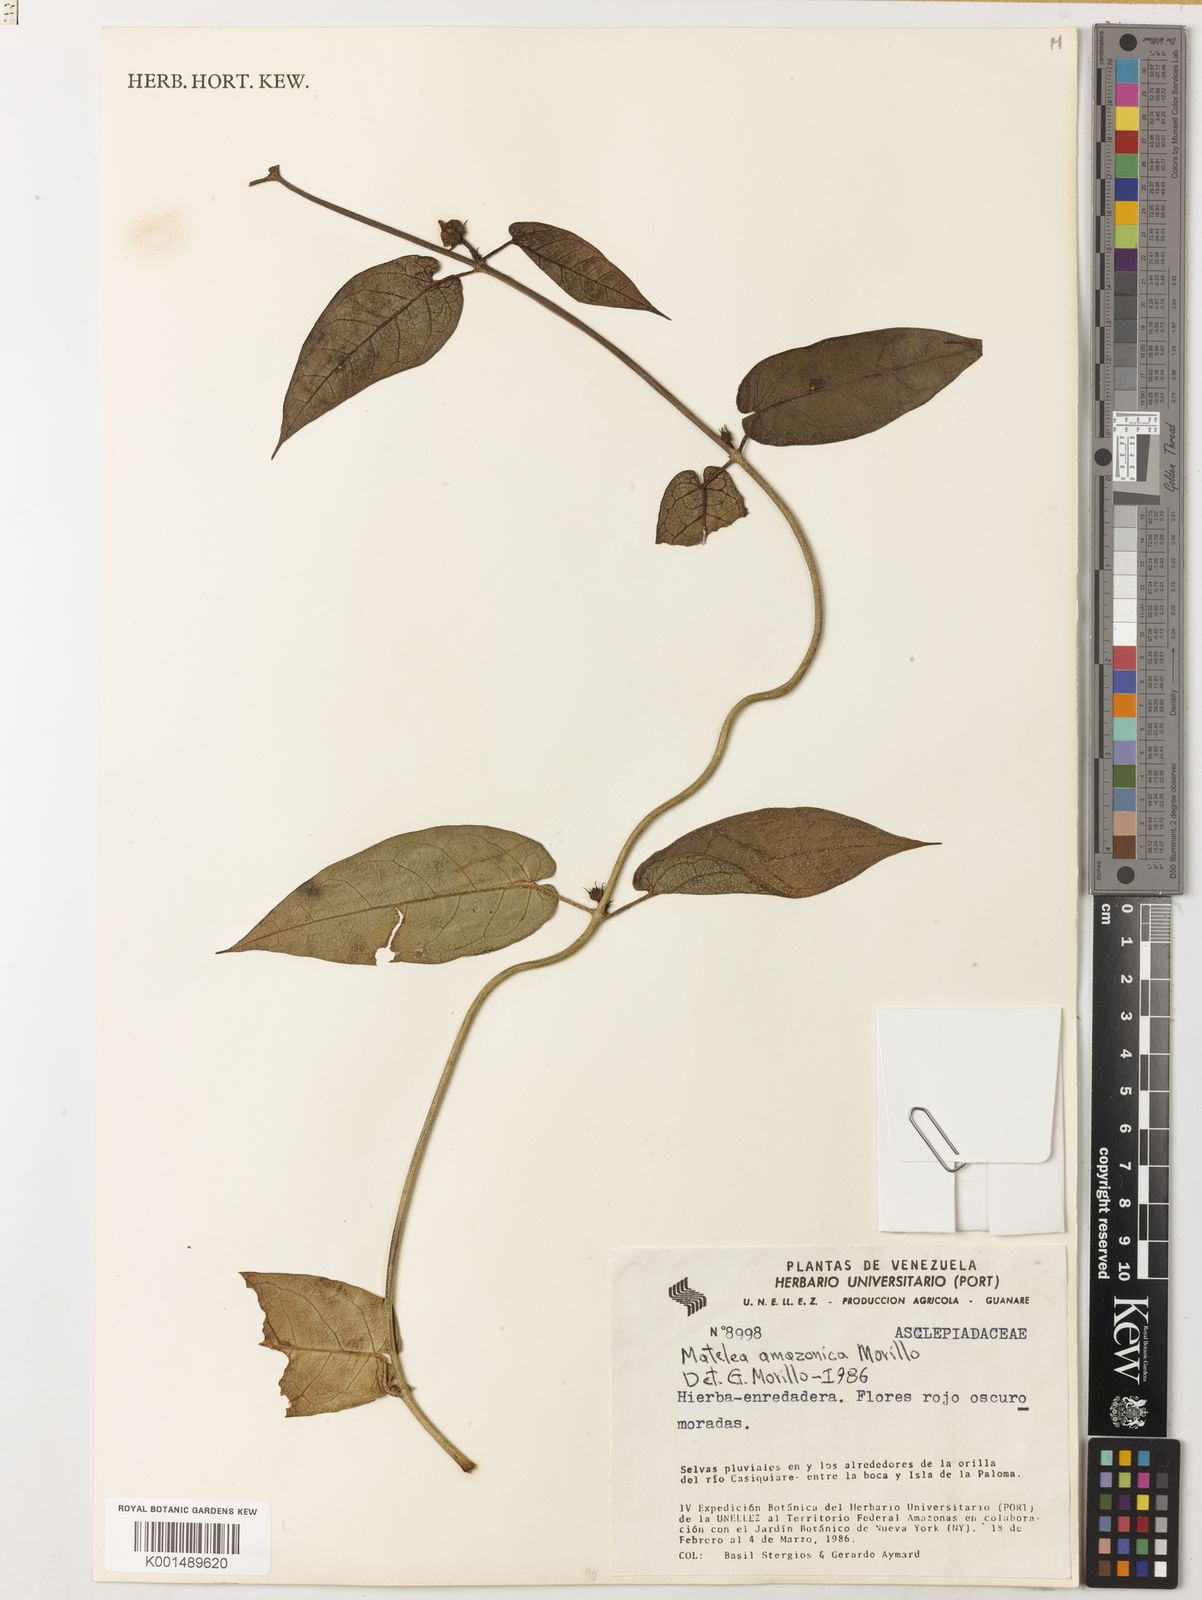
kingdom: Plantae
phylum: Tracheophyta
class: Magnoliopsida
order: Gentianales
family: Apocynaceae
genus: Riparoampelos
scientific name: Riparoampelos amazonicus
